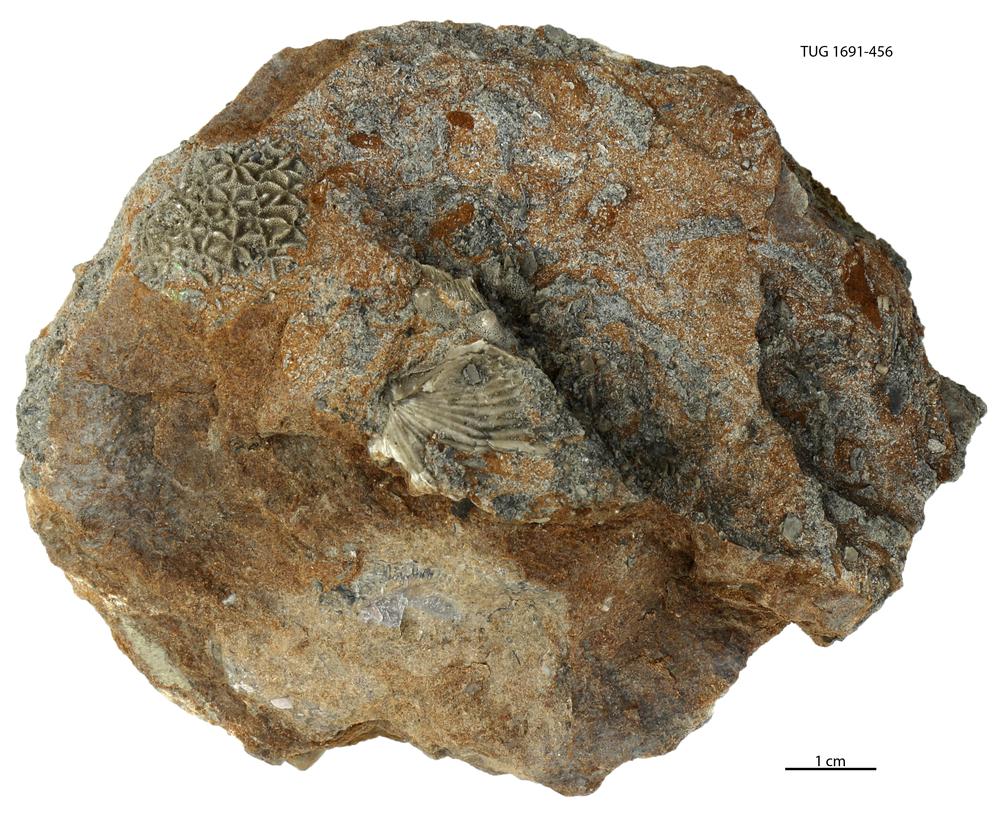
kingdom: Animalia
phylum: Bryozoa
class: Stenolaemata
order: Cystoporida
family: Constellariidae
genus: Revalopora
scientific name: Revalopora revalensis
